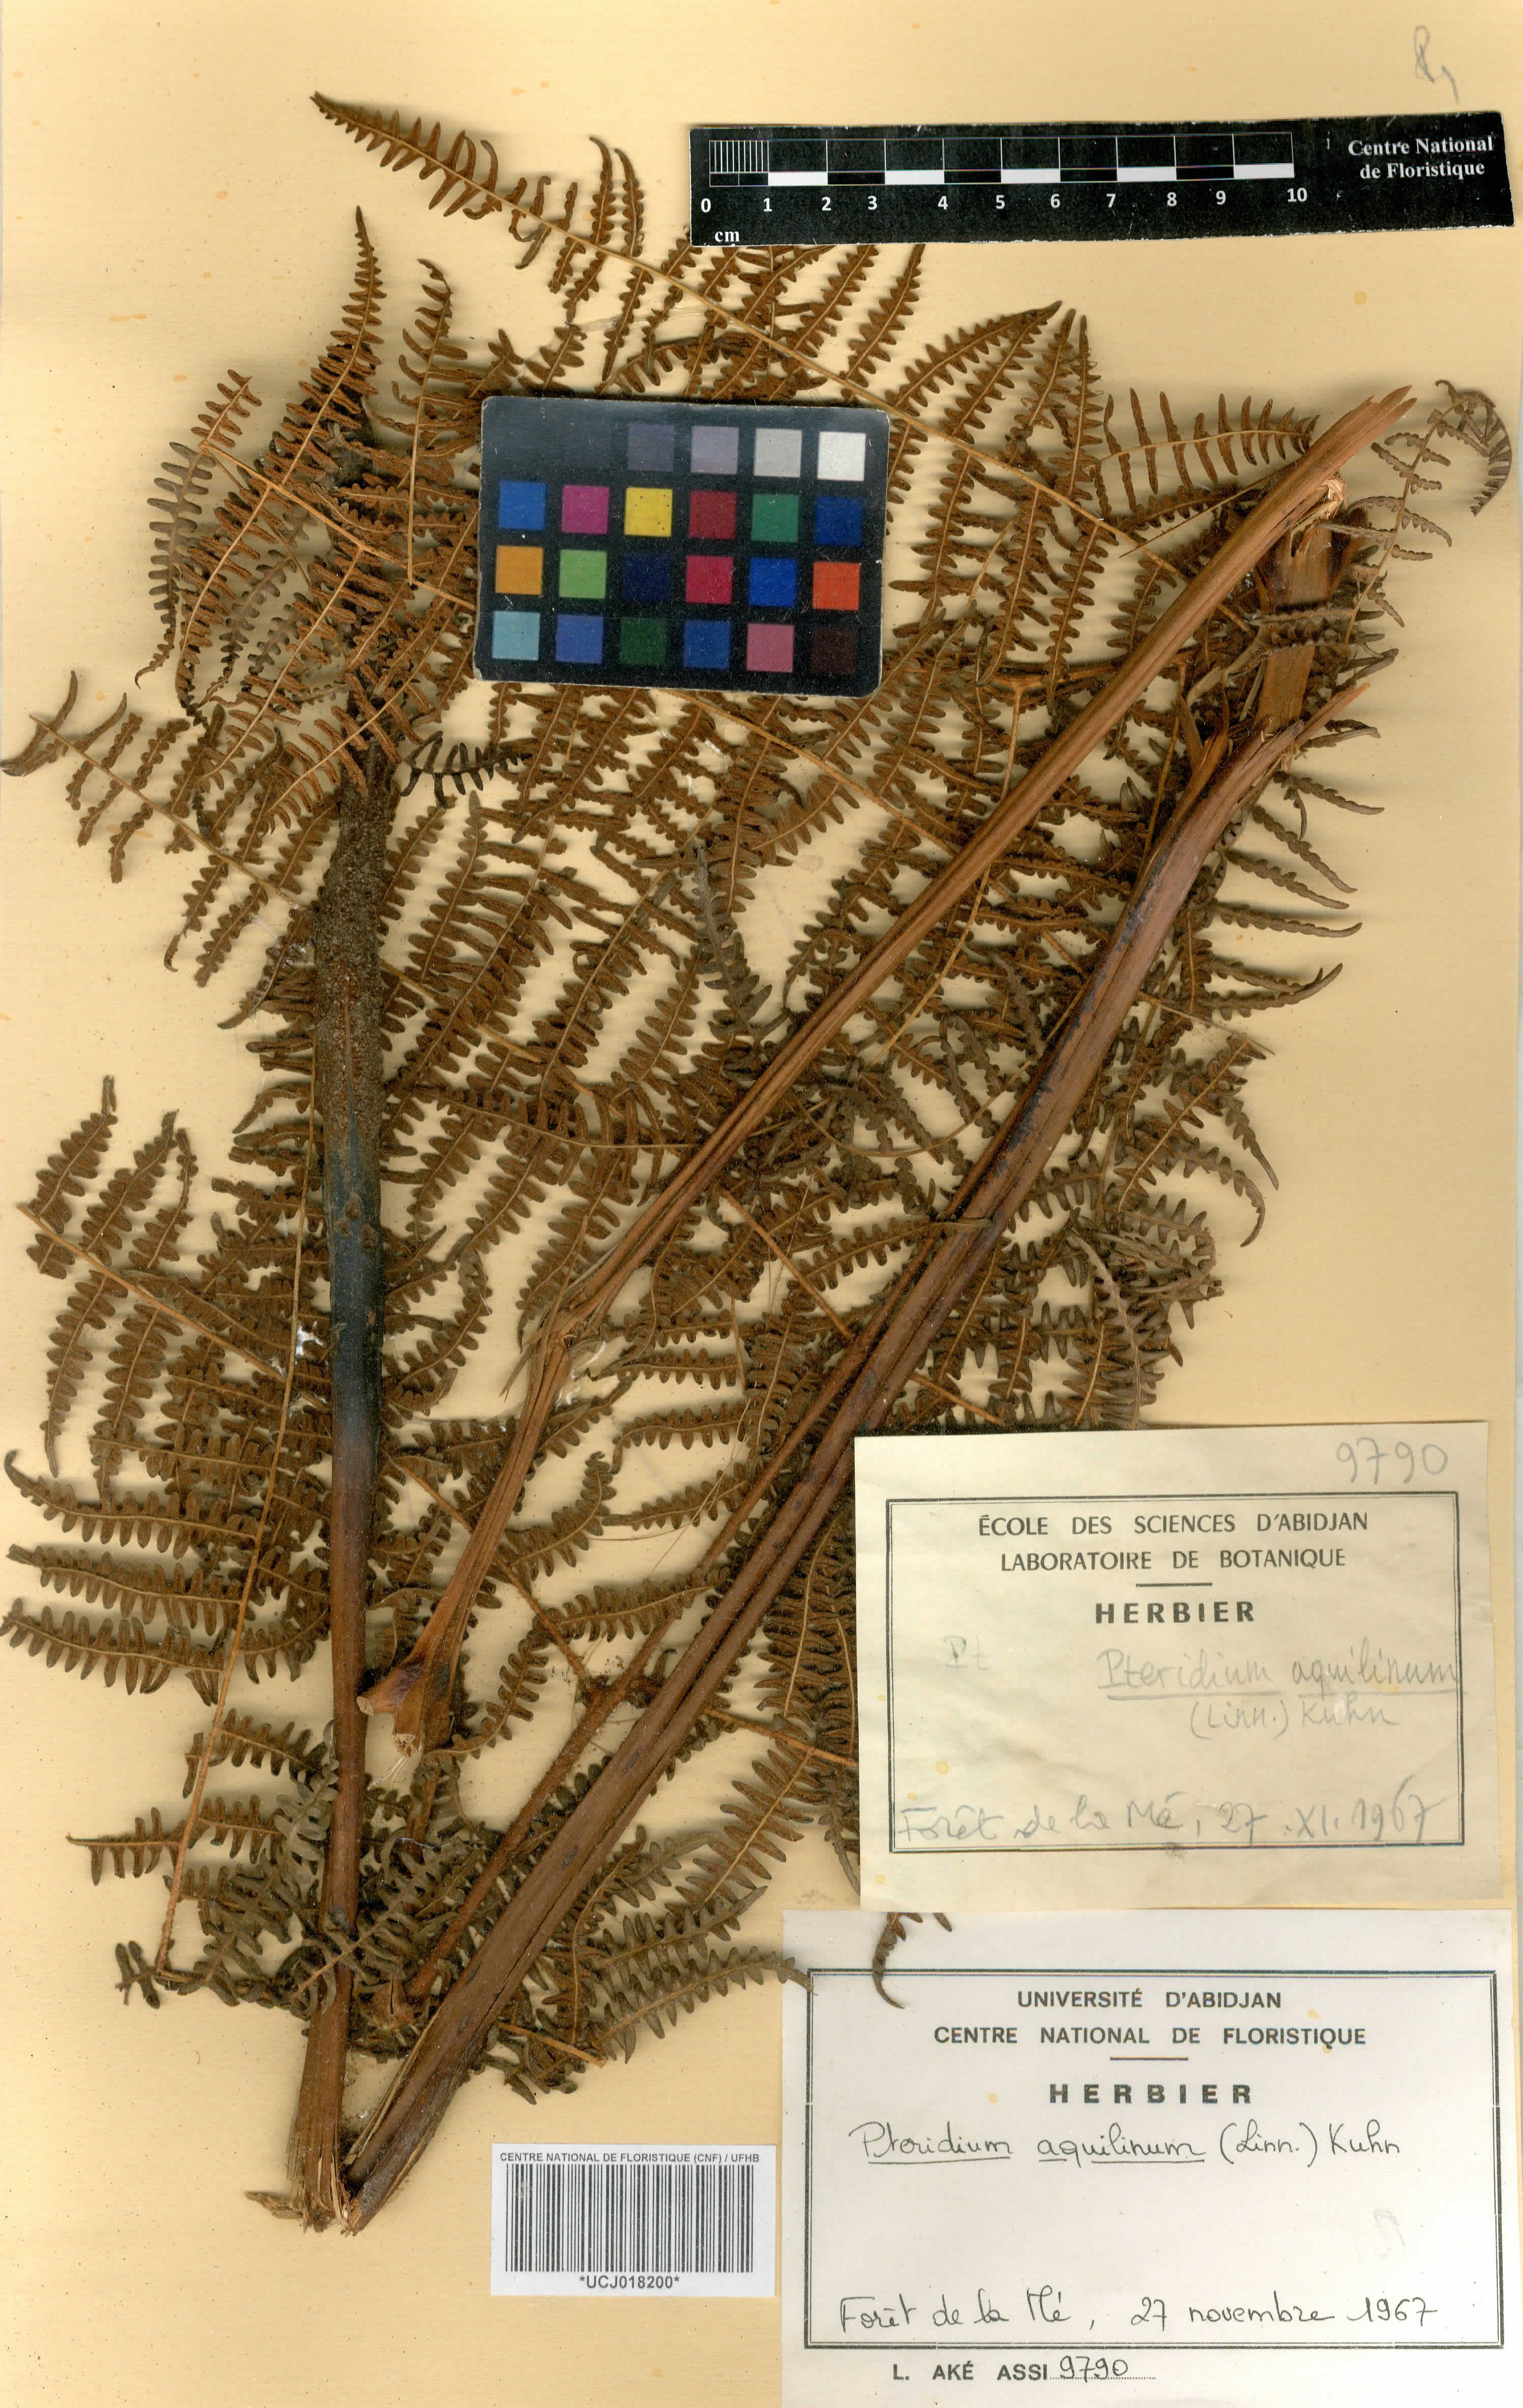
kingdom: Plantae
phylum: Tracheophyta
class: Polypodiopsida
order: Polypodiales
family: Dennstaedtiaceae
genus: Pteridium
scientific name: Pteridium aquilinum
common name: Bracken
